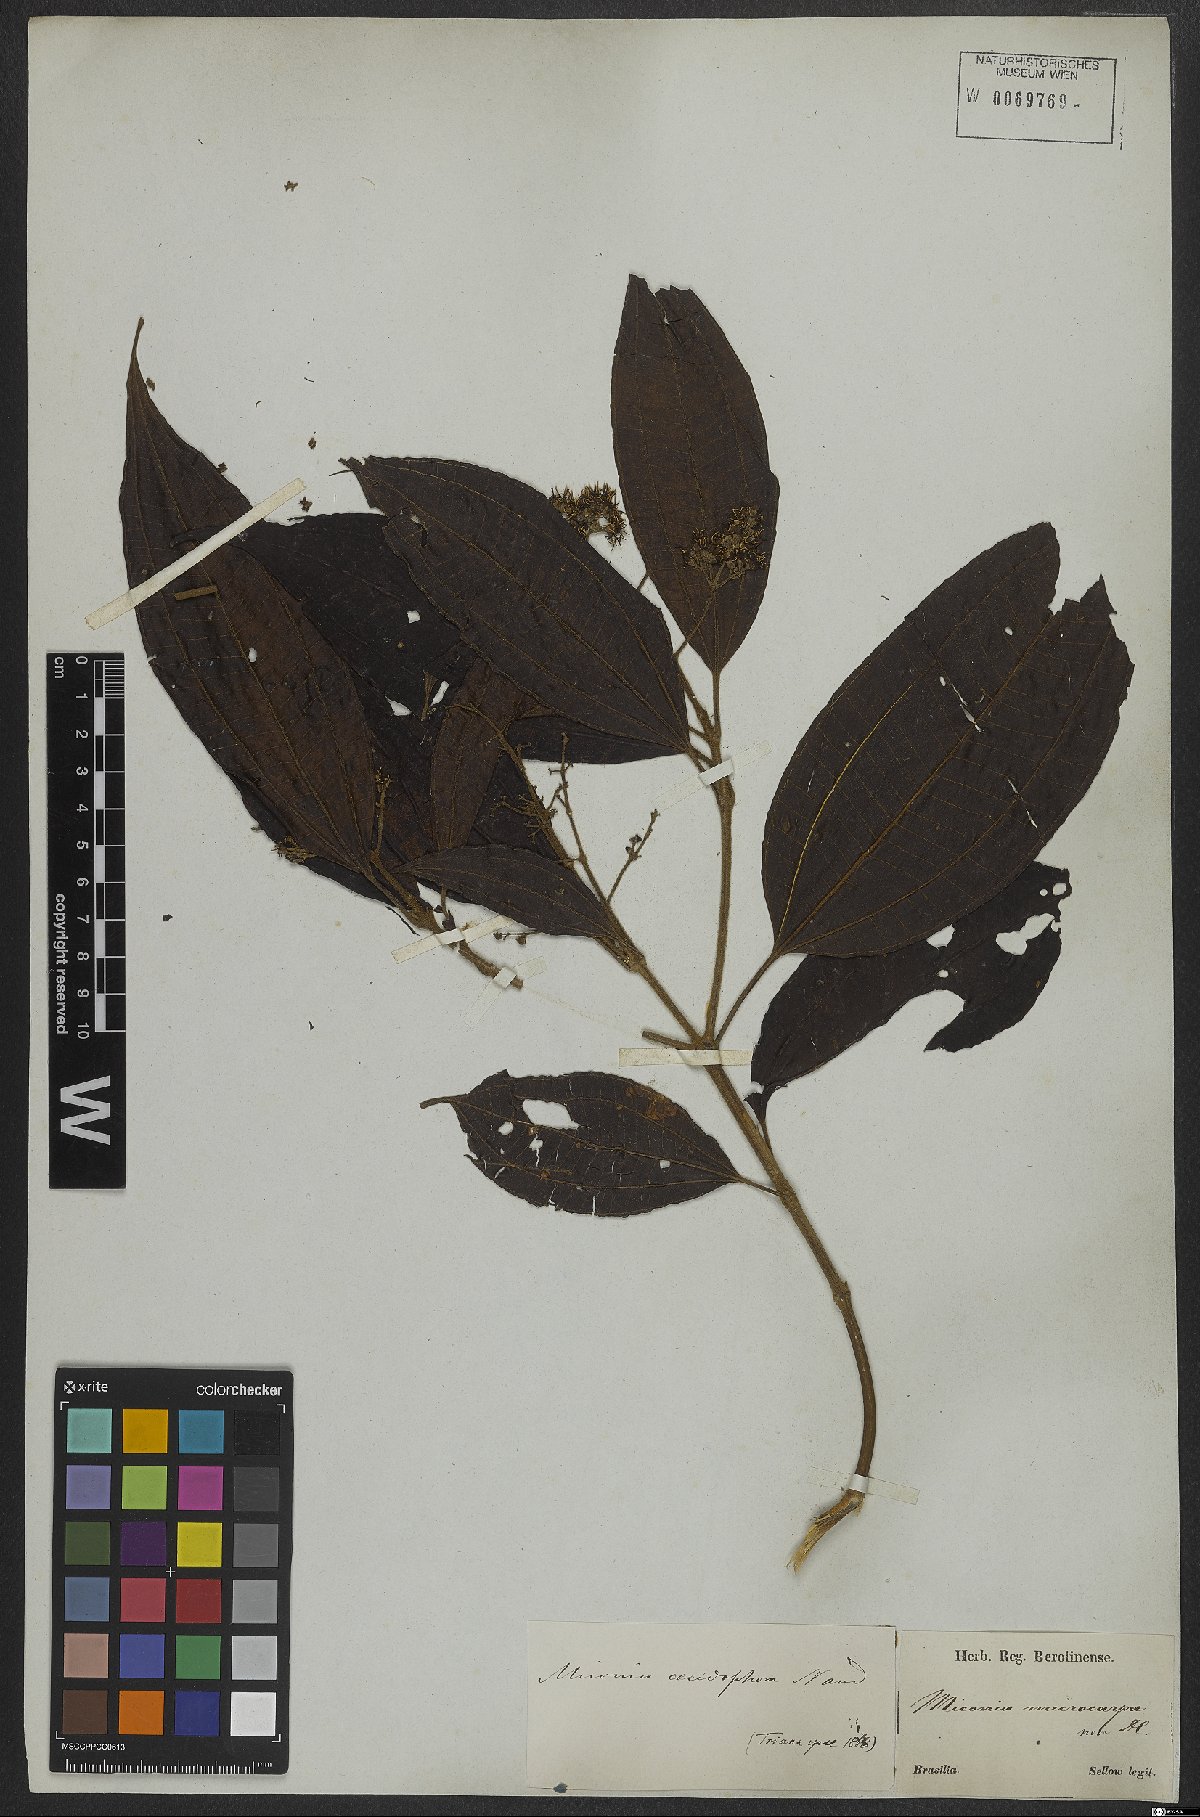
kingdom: Plantae
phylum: Tracheophyta
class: Magnoliopsida
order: Myrtales
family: Melastomataceae
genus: Miconia
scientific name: Miconia affinis
